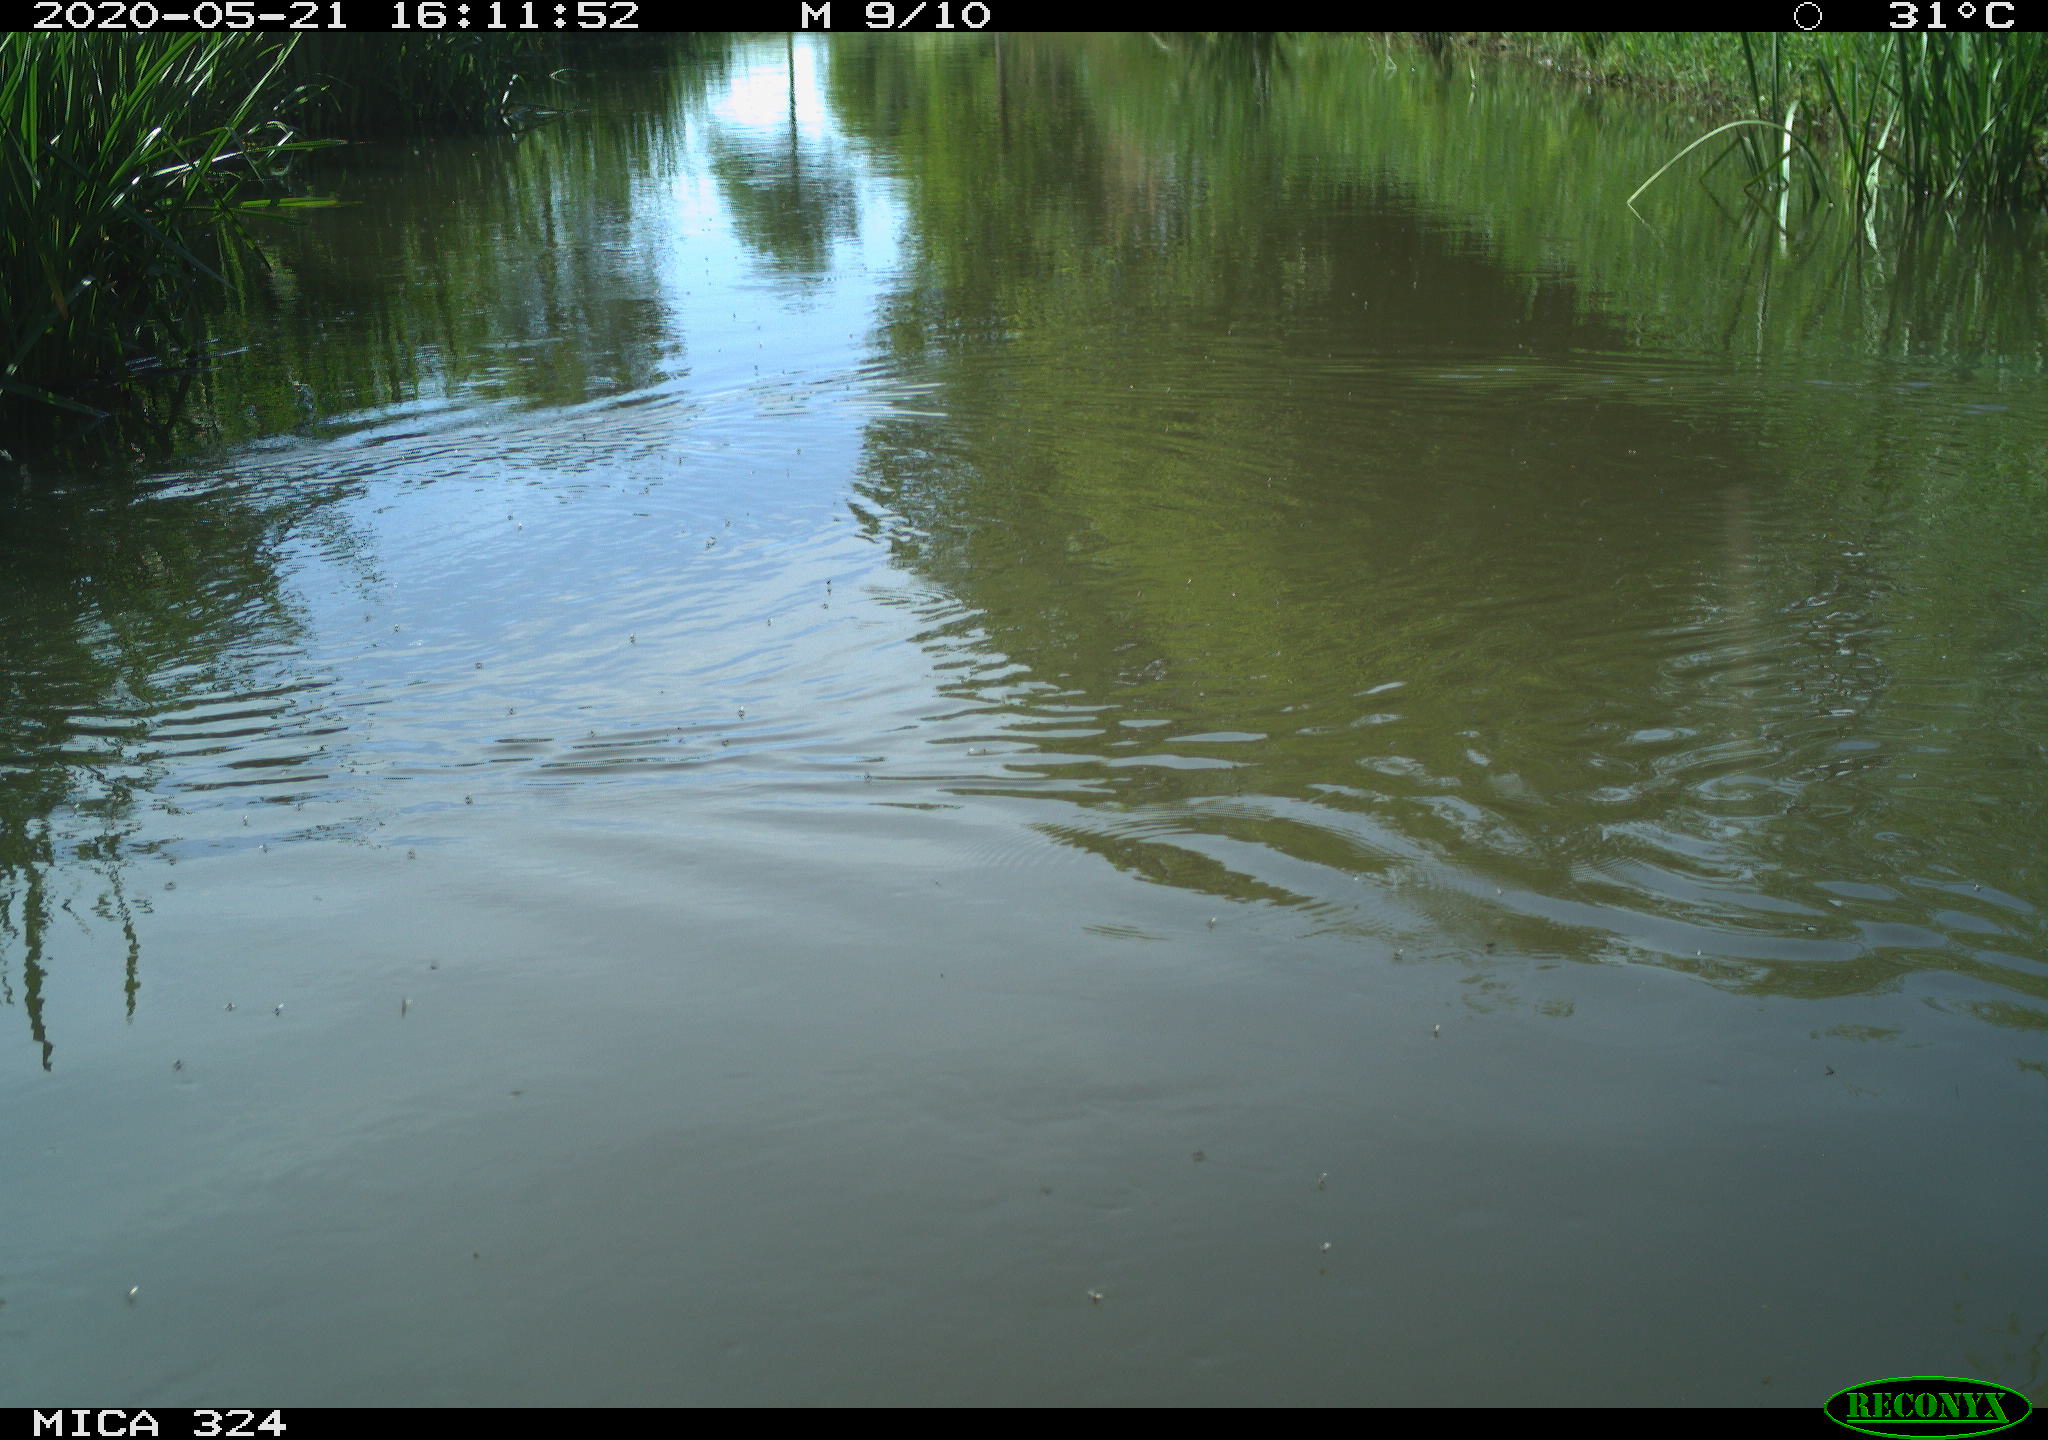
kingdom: Animalia
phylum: Chordata
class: Mammalia
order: Rodentia
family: Cricetidae
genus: Ondatra
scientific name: Ondatra zibethicus
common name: Muskrat
